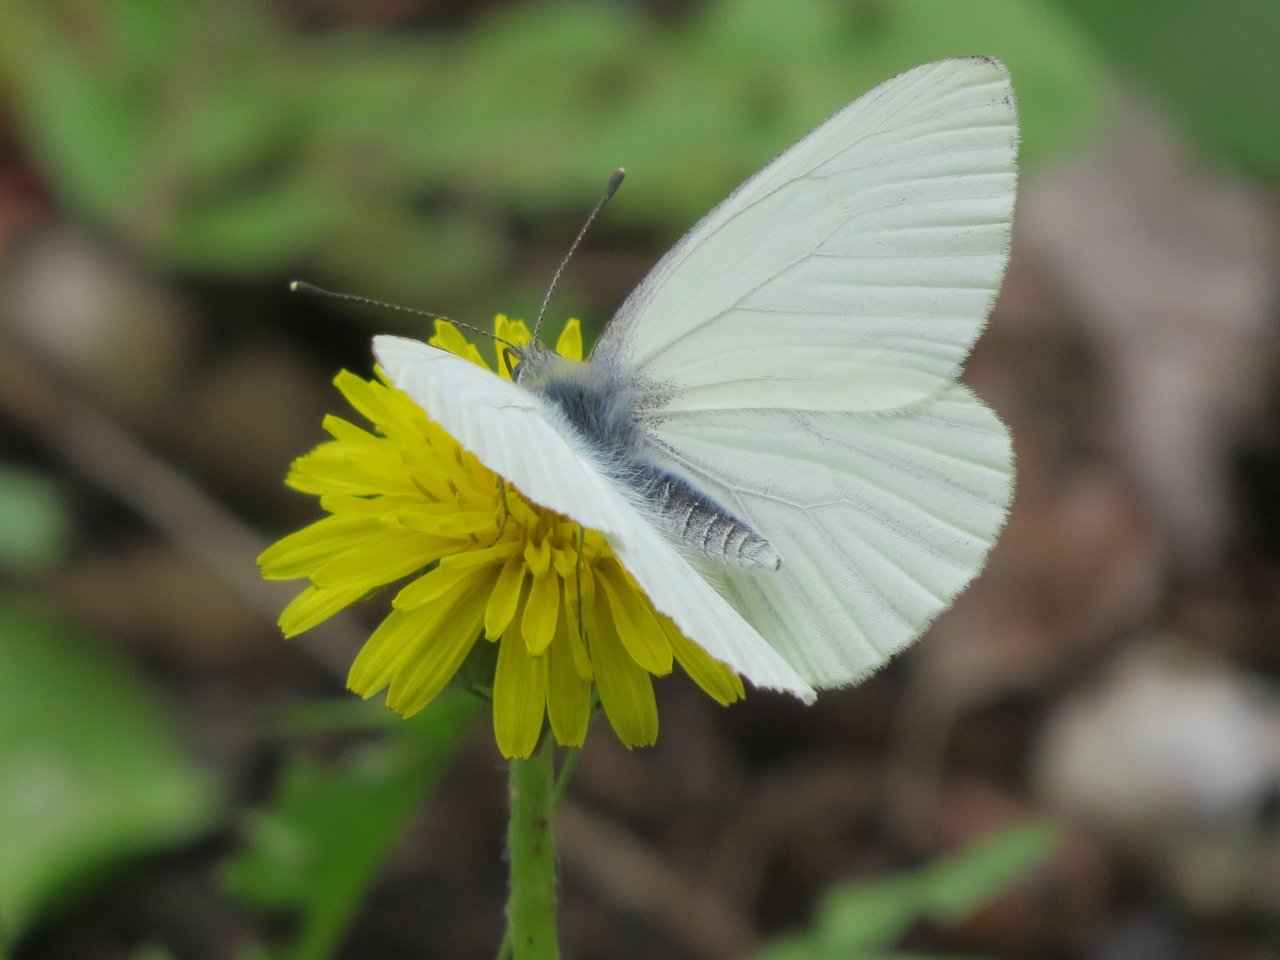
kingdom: Animalia
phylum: Arthropoda
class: Insecta
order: Lepidoptera
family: Pieridae
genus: Pieris
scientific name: Pieris oleracea
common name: Mustard White
